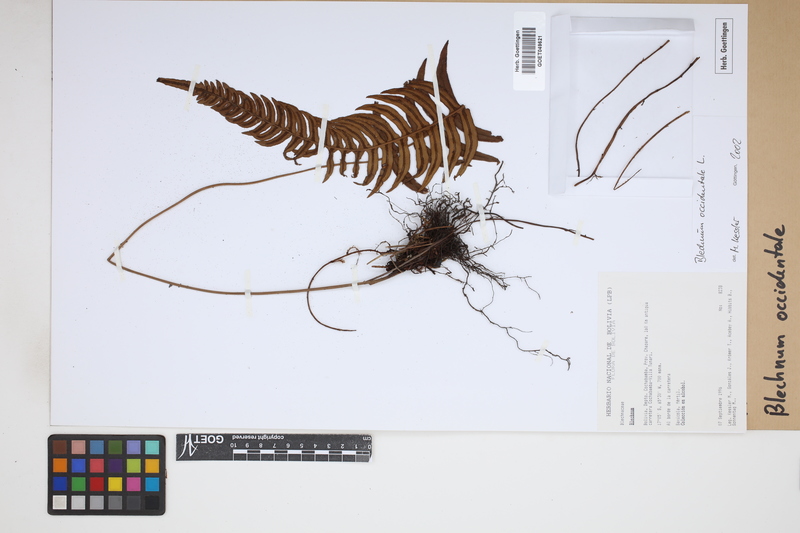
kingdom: Plantae
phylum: Tracheophyta
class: Polypodiopsida
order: Polypodiales
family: Blechnaceae
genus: Blechnum
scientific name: Blechnum occidentale
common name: Hammock fern
